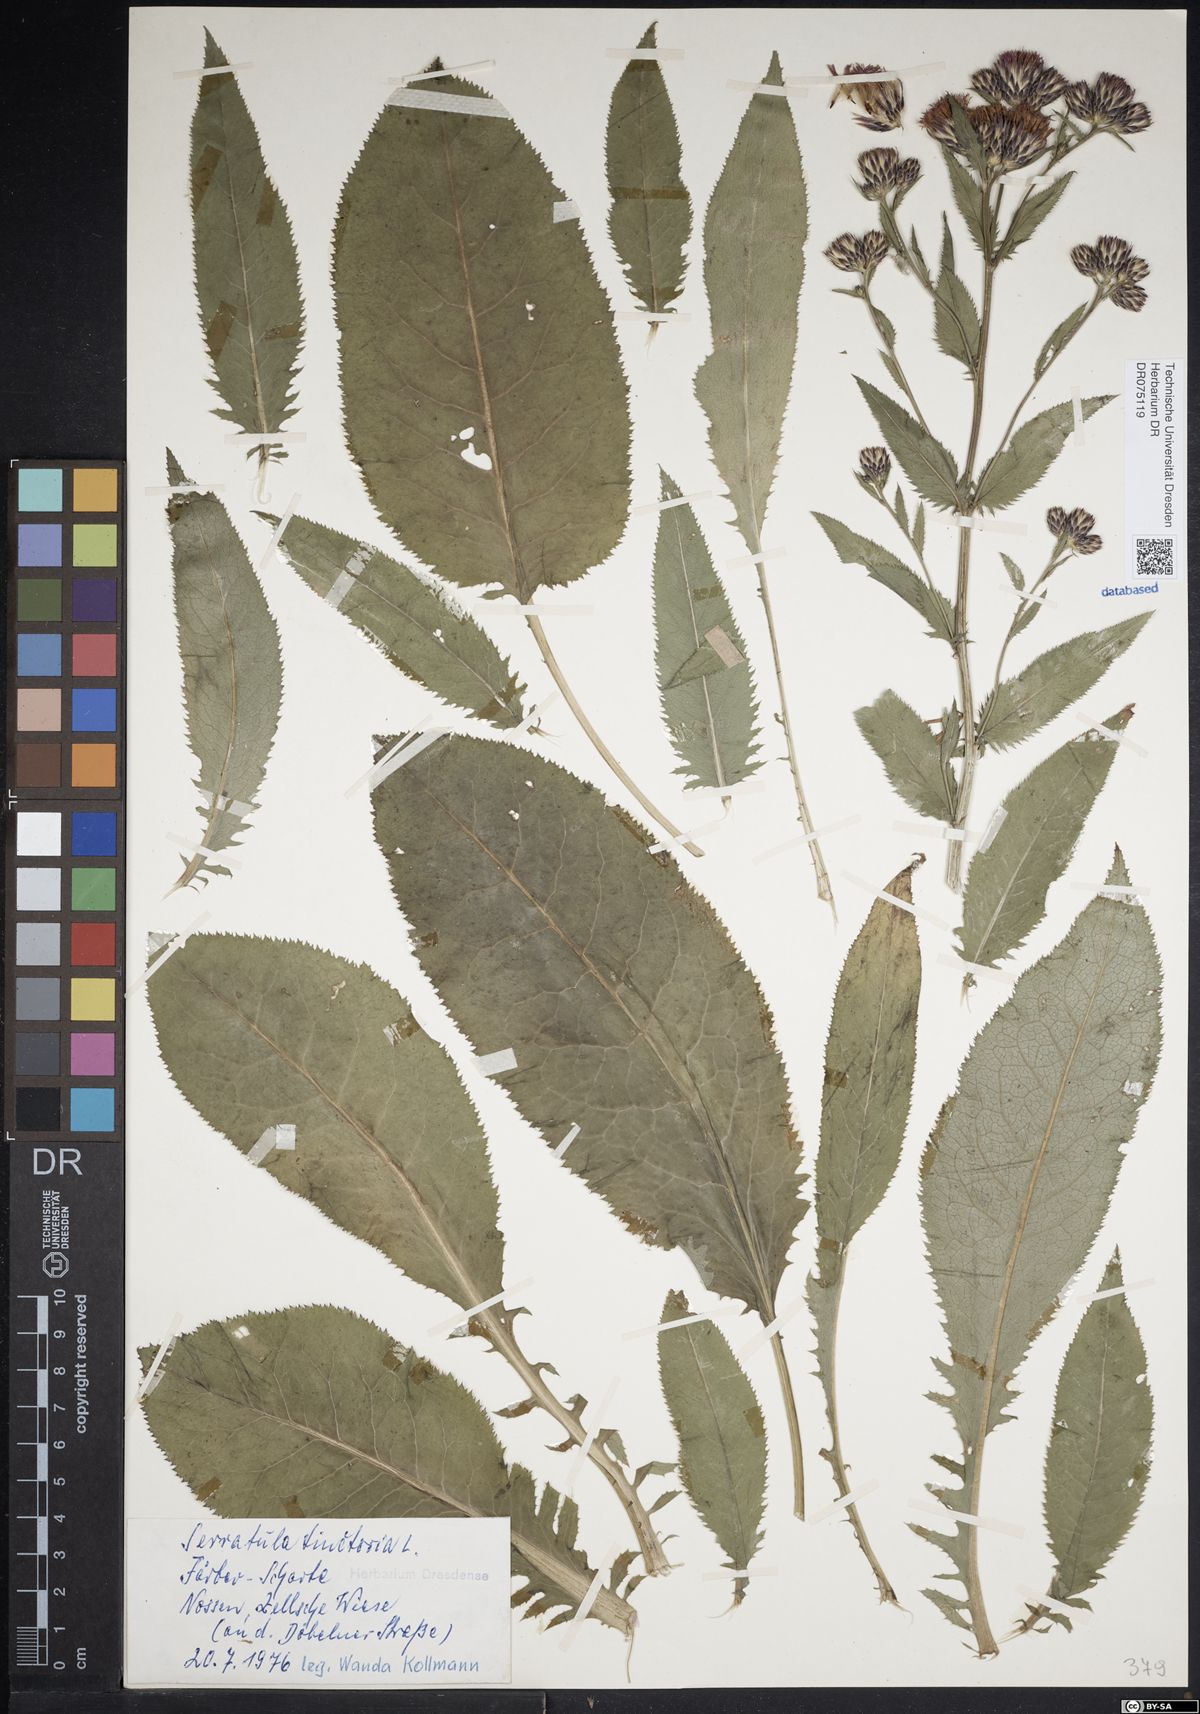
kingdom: Plantae
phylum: Tracheophyta
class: Magnoliopsida
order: Asterales
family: Asteraceae
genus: Serratula
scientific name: Serratula tinctoria
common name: Saw-wort
